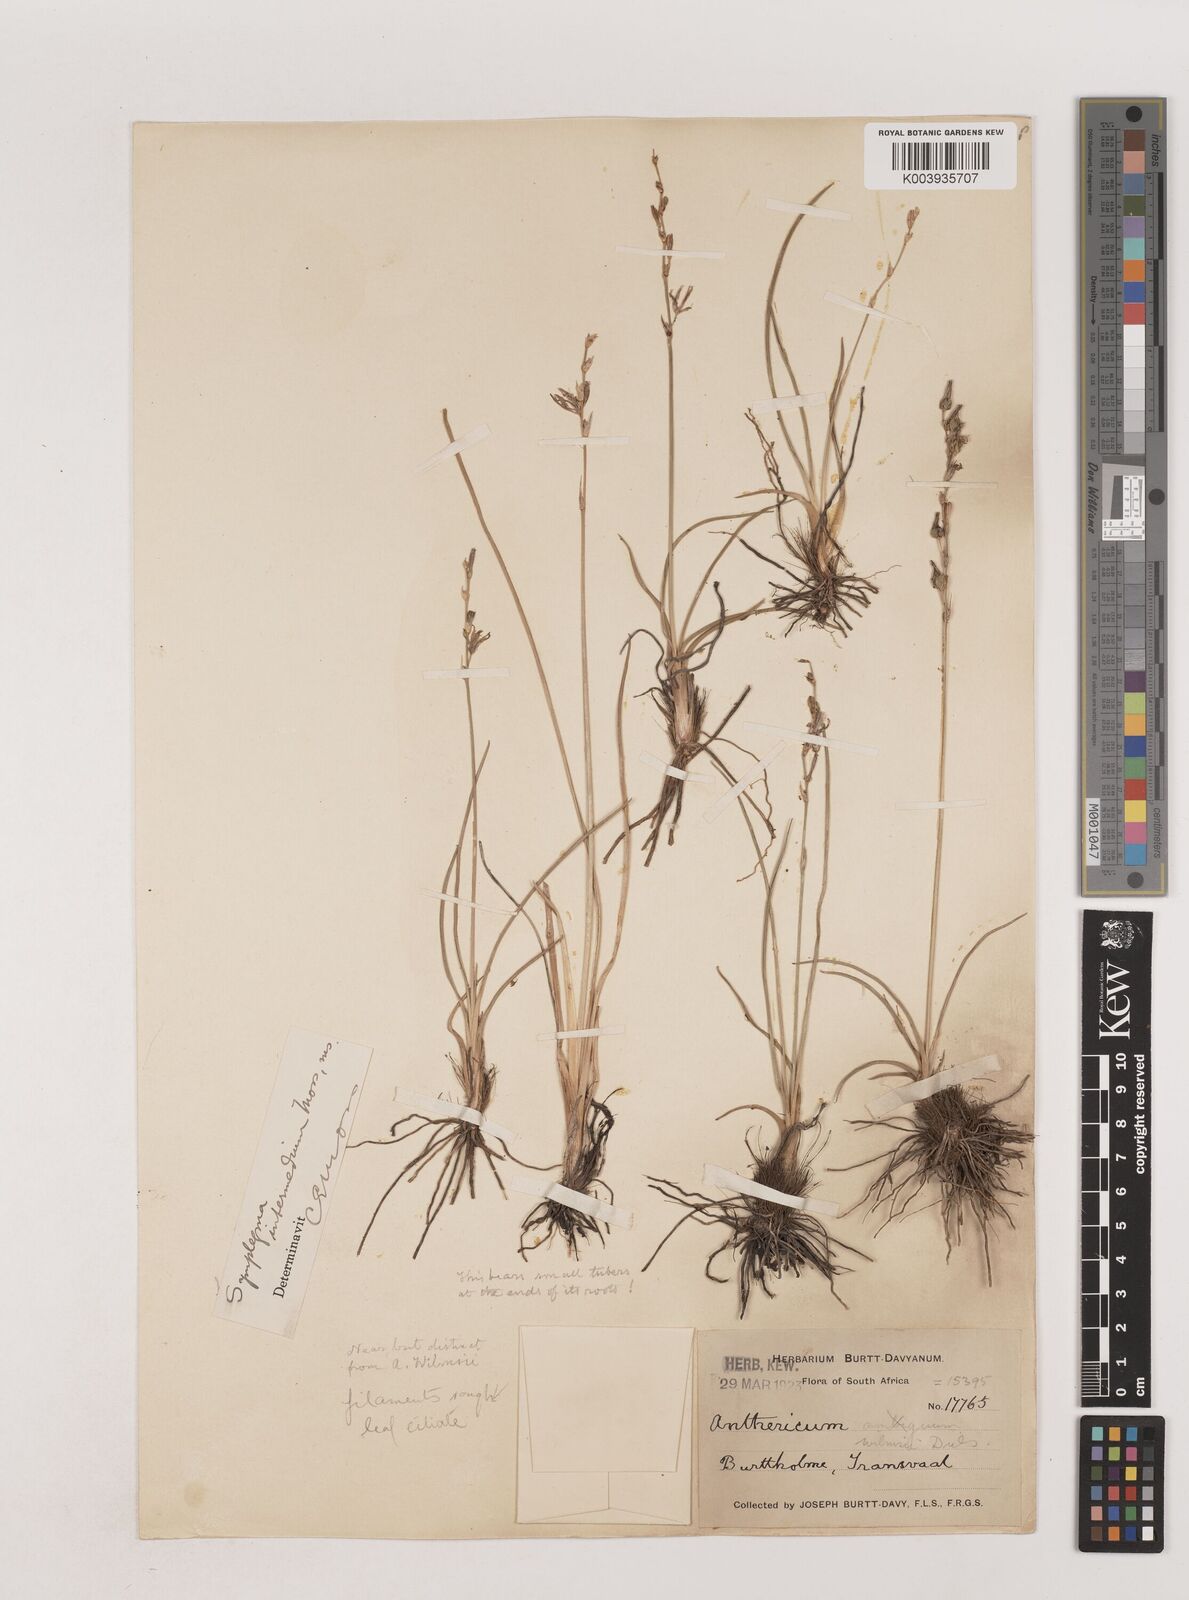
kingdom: Plantae
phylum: Tracheophyta
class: Liliopsida
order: Asparagales
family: Asparagaceae
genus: Chlorophytum
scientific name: Chlorophytum fasciculatum
